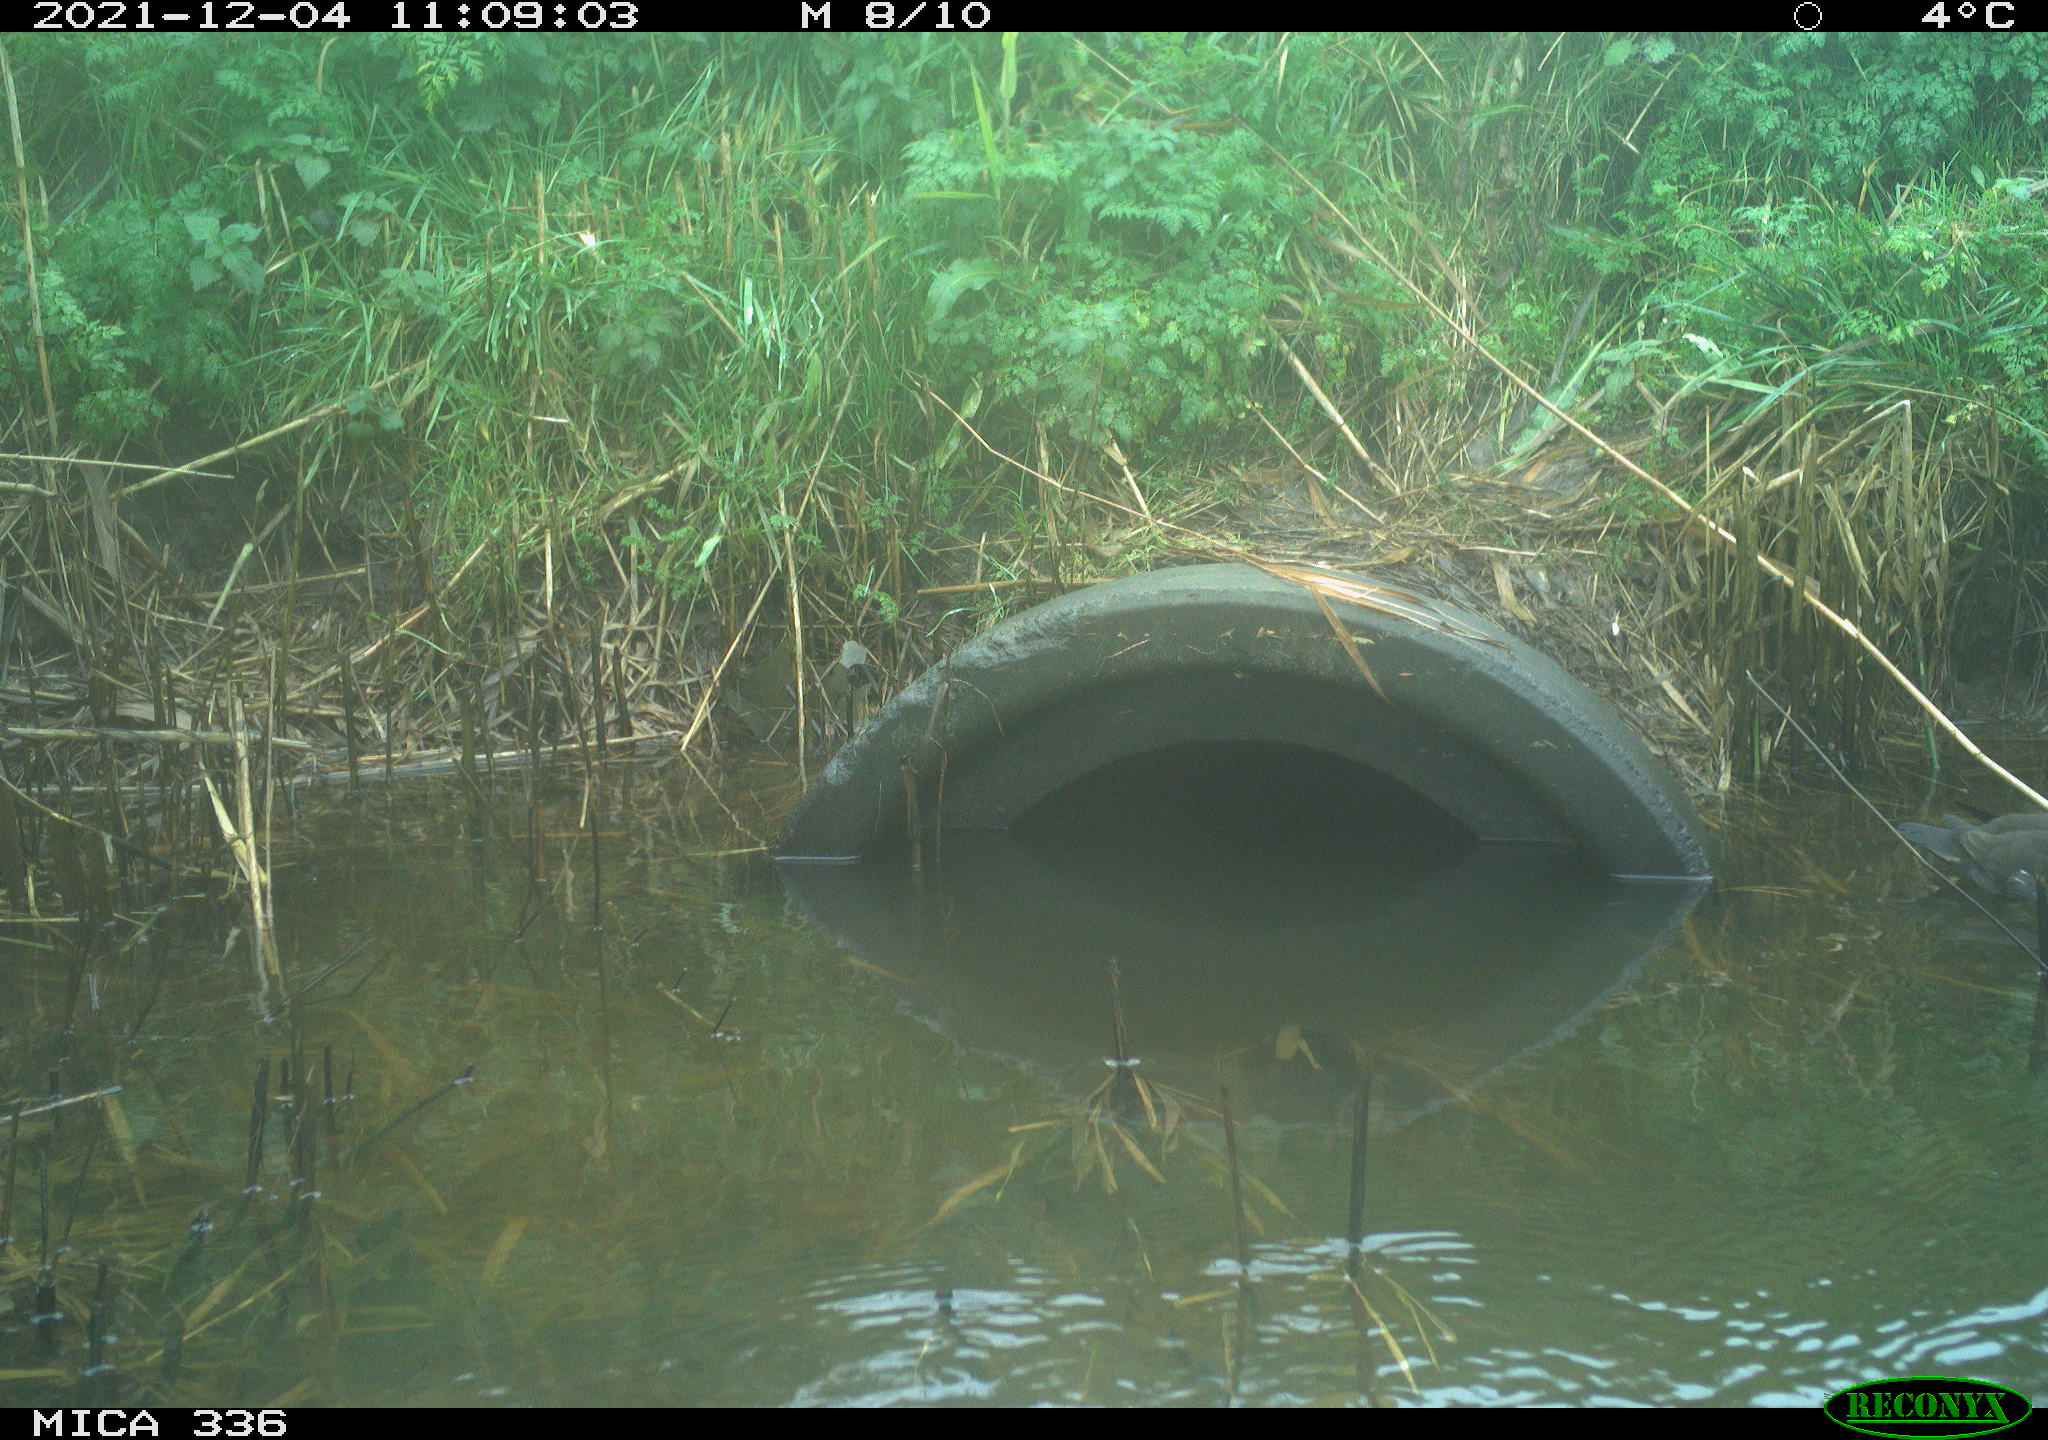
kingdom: Animalia
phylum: Chordata
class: Aves
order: Gruiformes
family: Rallidae
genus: Gallinula
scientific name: Gallinula chloropus
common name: Common moorhen
